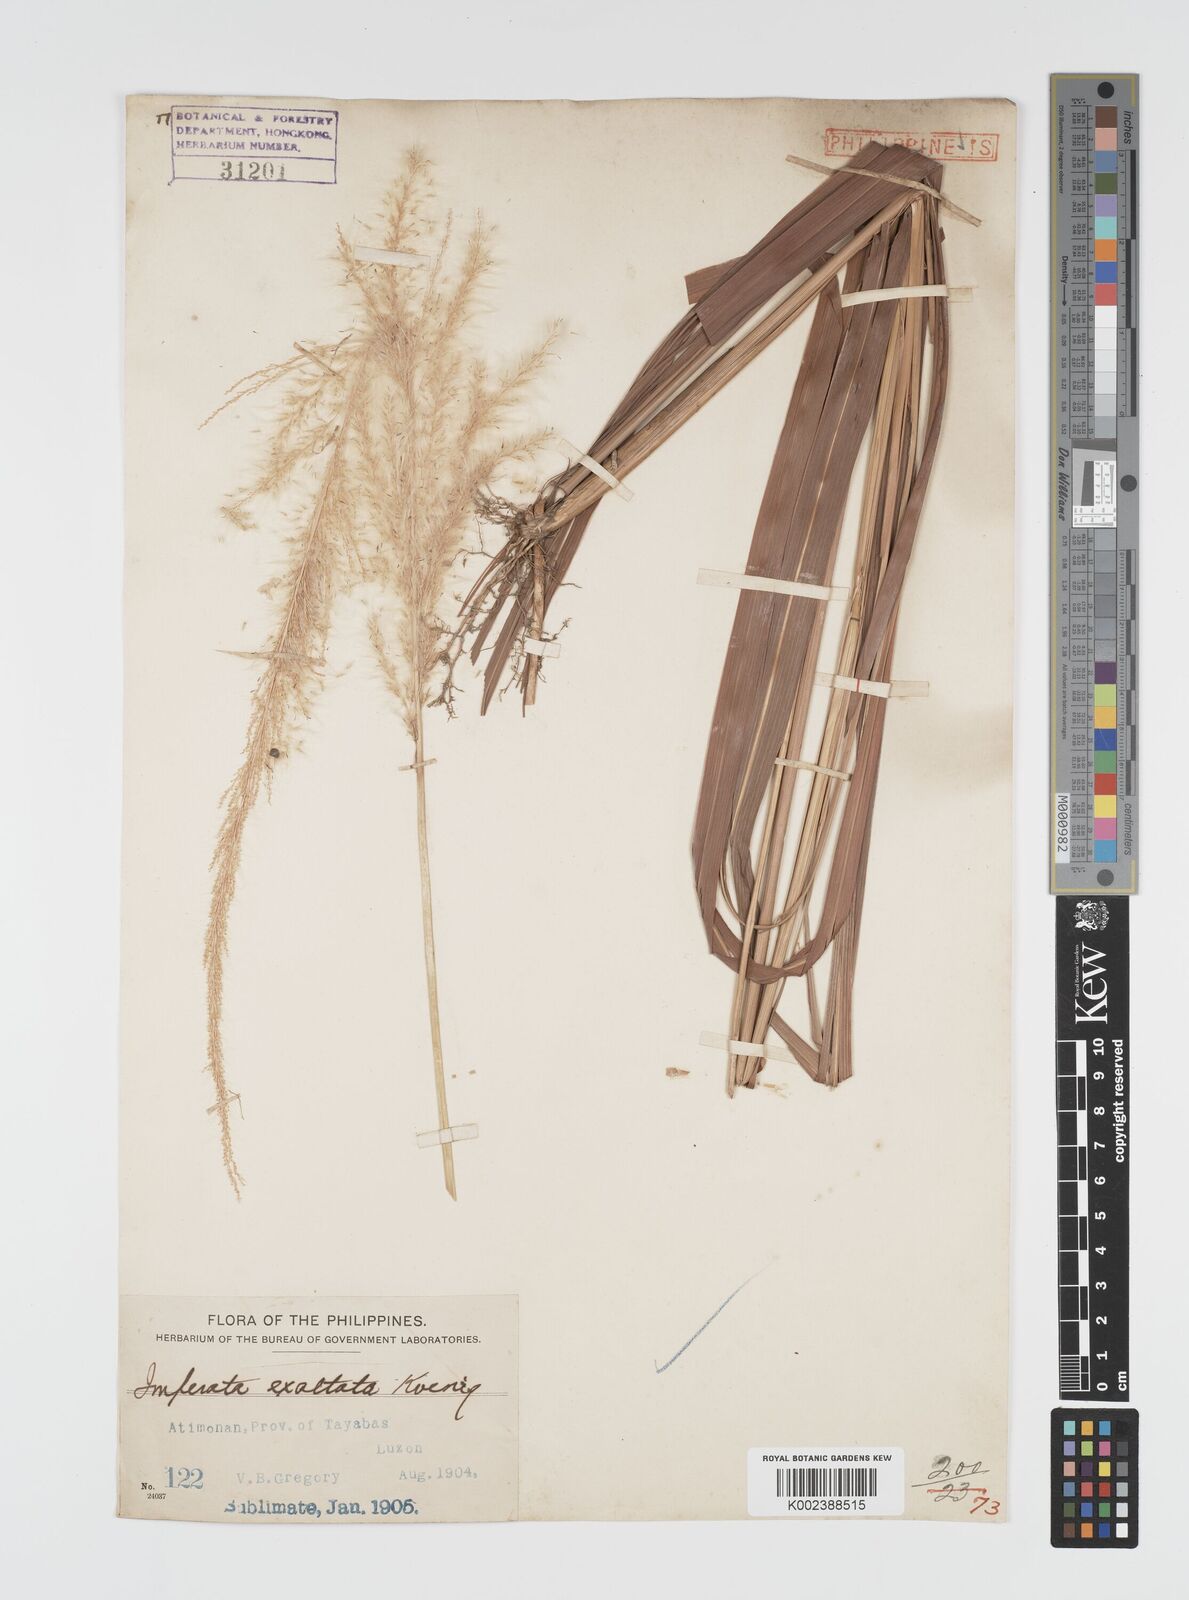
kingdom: Plantae
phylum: Tracheophyta
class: Liliopsida
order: Poales
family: Poaceae
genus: Imperata
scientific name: Imperata conferta
